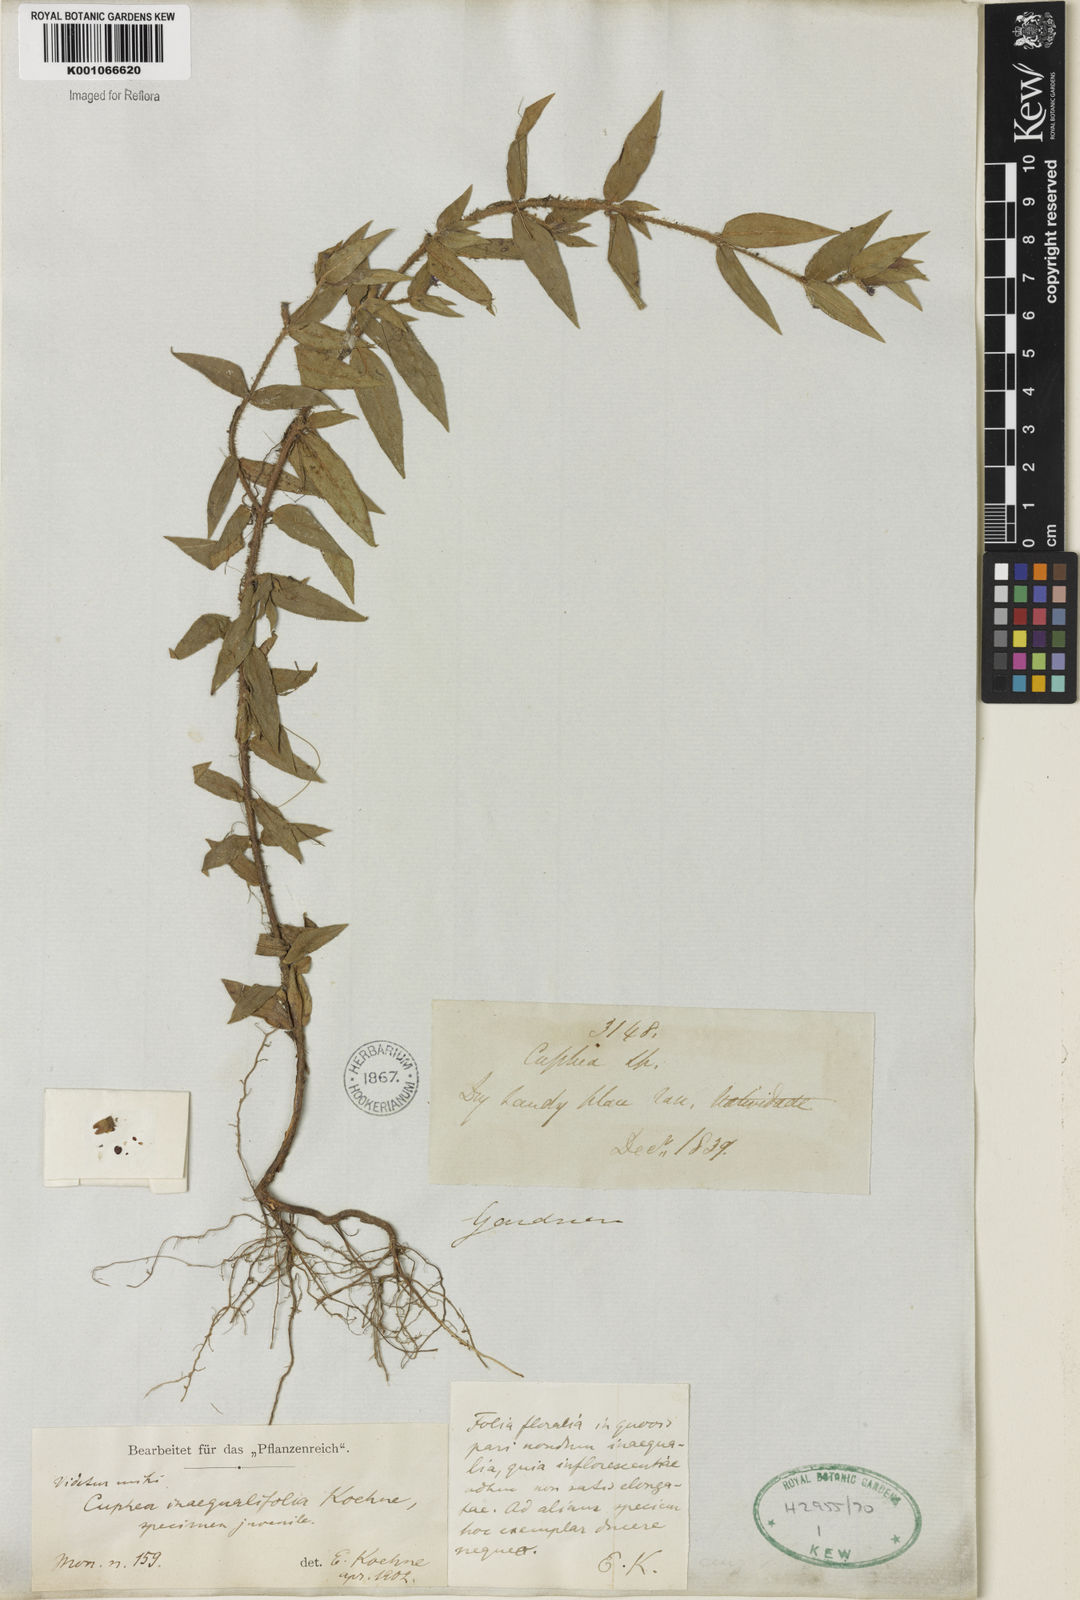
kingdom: Plantae
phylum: Tracheophyta
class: Magnoliopsida
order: Myrtales
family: Lythraceae
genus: Cuphea
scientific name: Cuphea inaequalifolia
